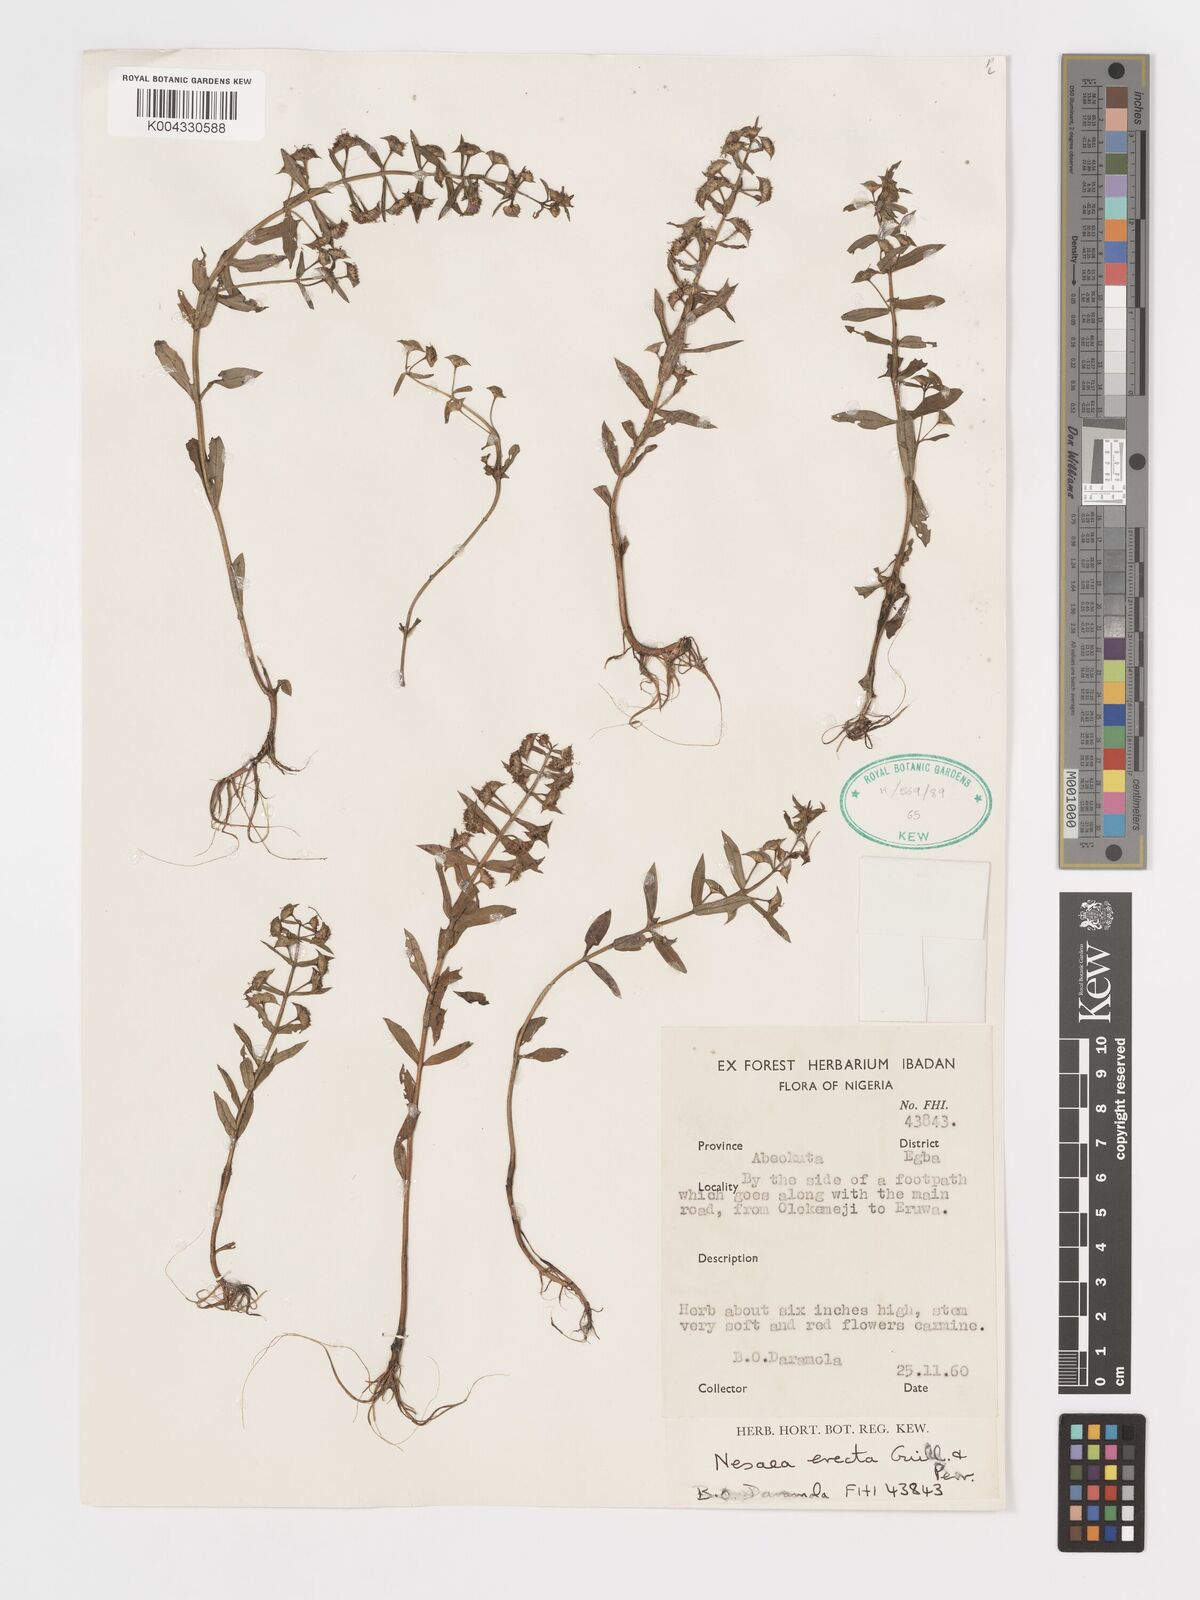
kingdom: Plantae
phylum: Tracheophyta
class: Magnoliopsida
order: Myrtales
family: Lythraceae
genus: Ammannia
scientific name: Ammannia erecta
